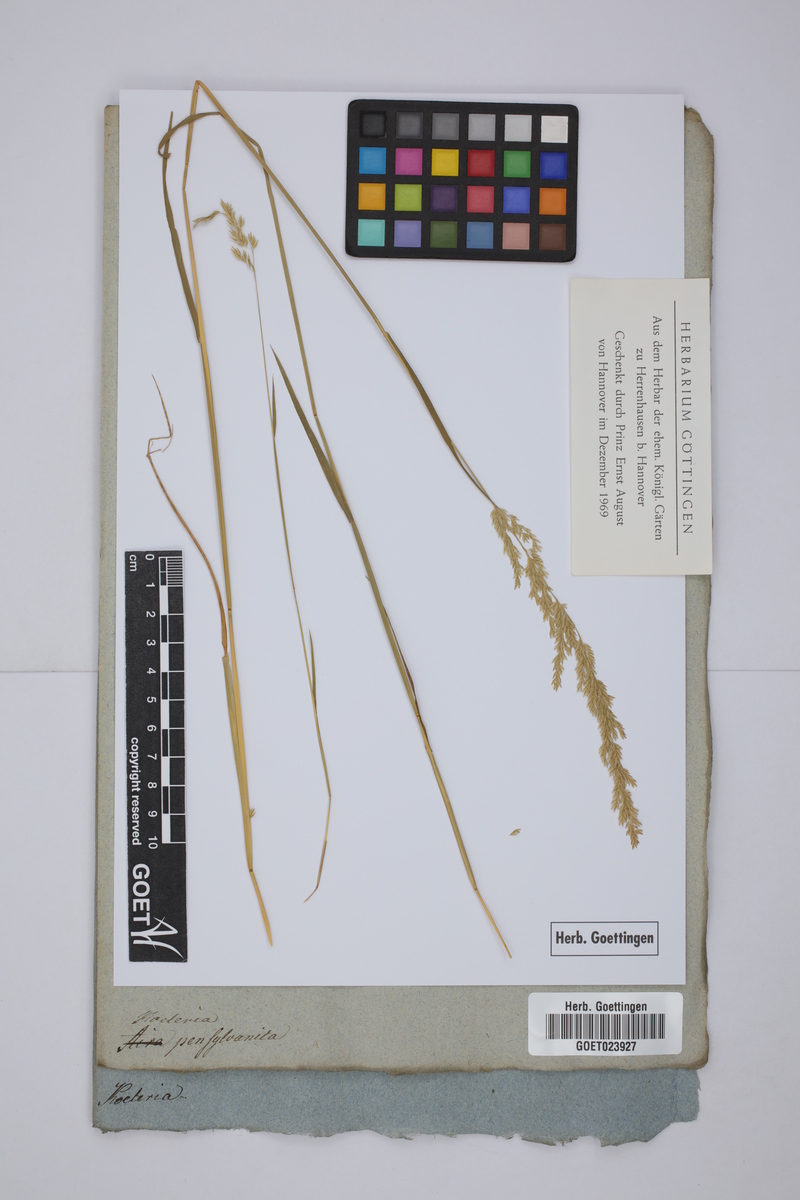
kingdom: Plantae
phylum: Tracheophyta
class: Liliopsida
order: Poales
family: Poaceae
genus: Sphenopholis
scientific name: Sphenopholis nitida
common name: Shiny wedgegrass
